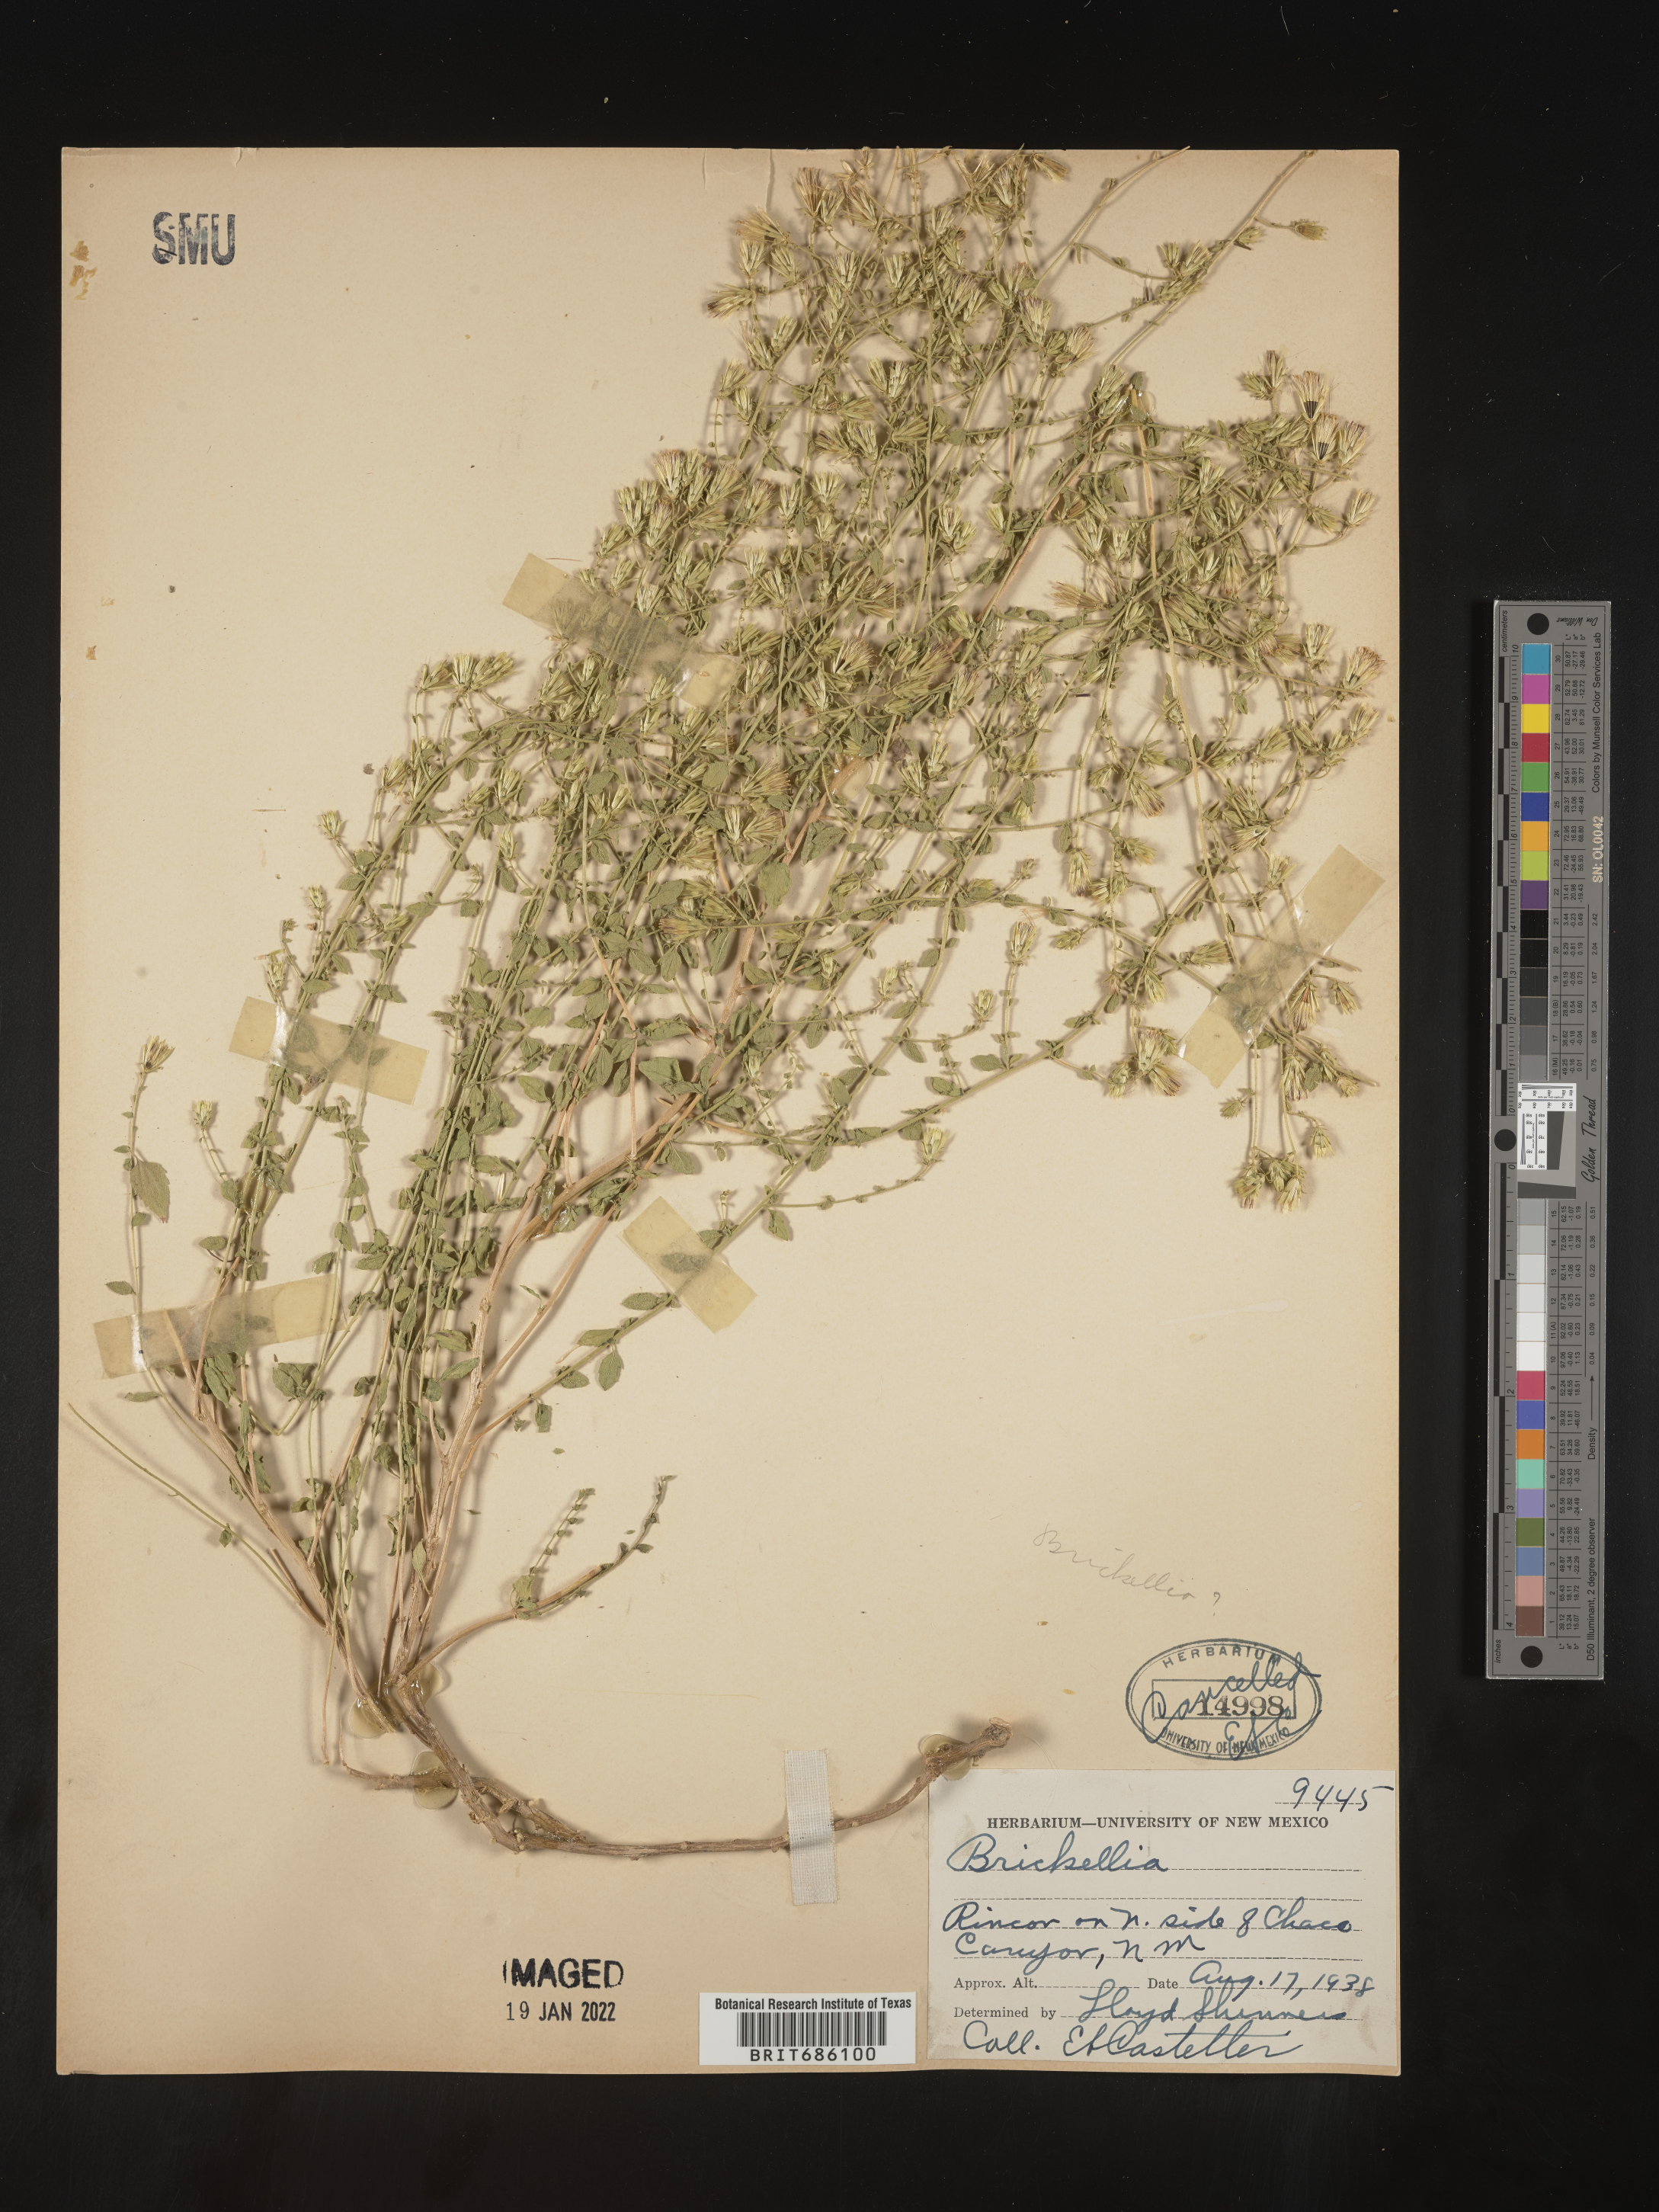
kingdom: Plantae
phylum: Tracheophyta
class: Magnoliopsida
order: Asterales
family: Asteraceae
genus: Brickellia
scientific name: Brickellia
